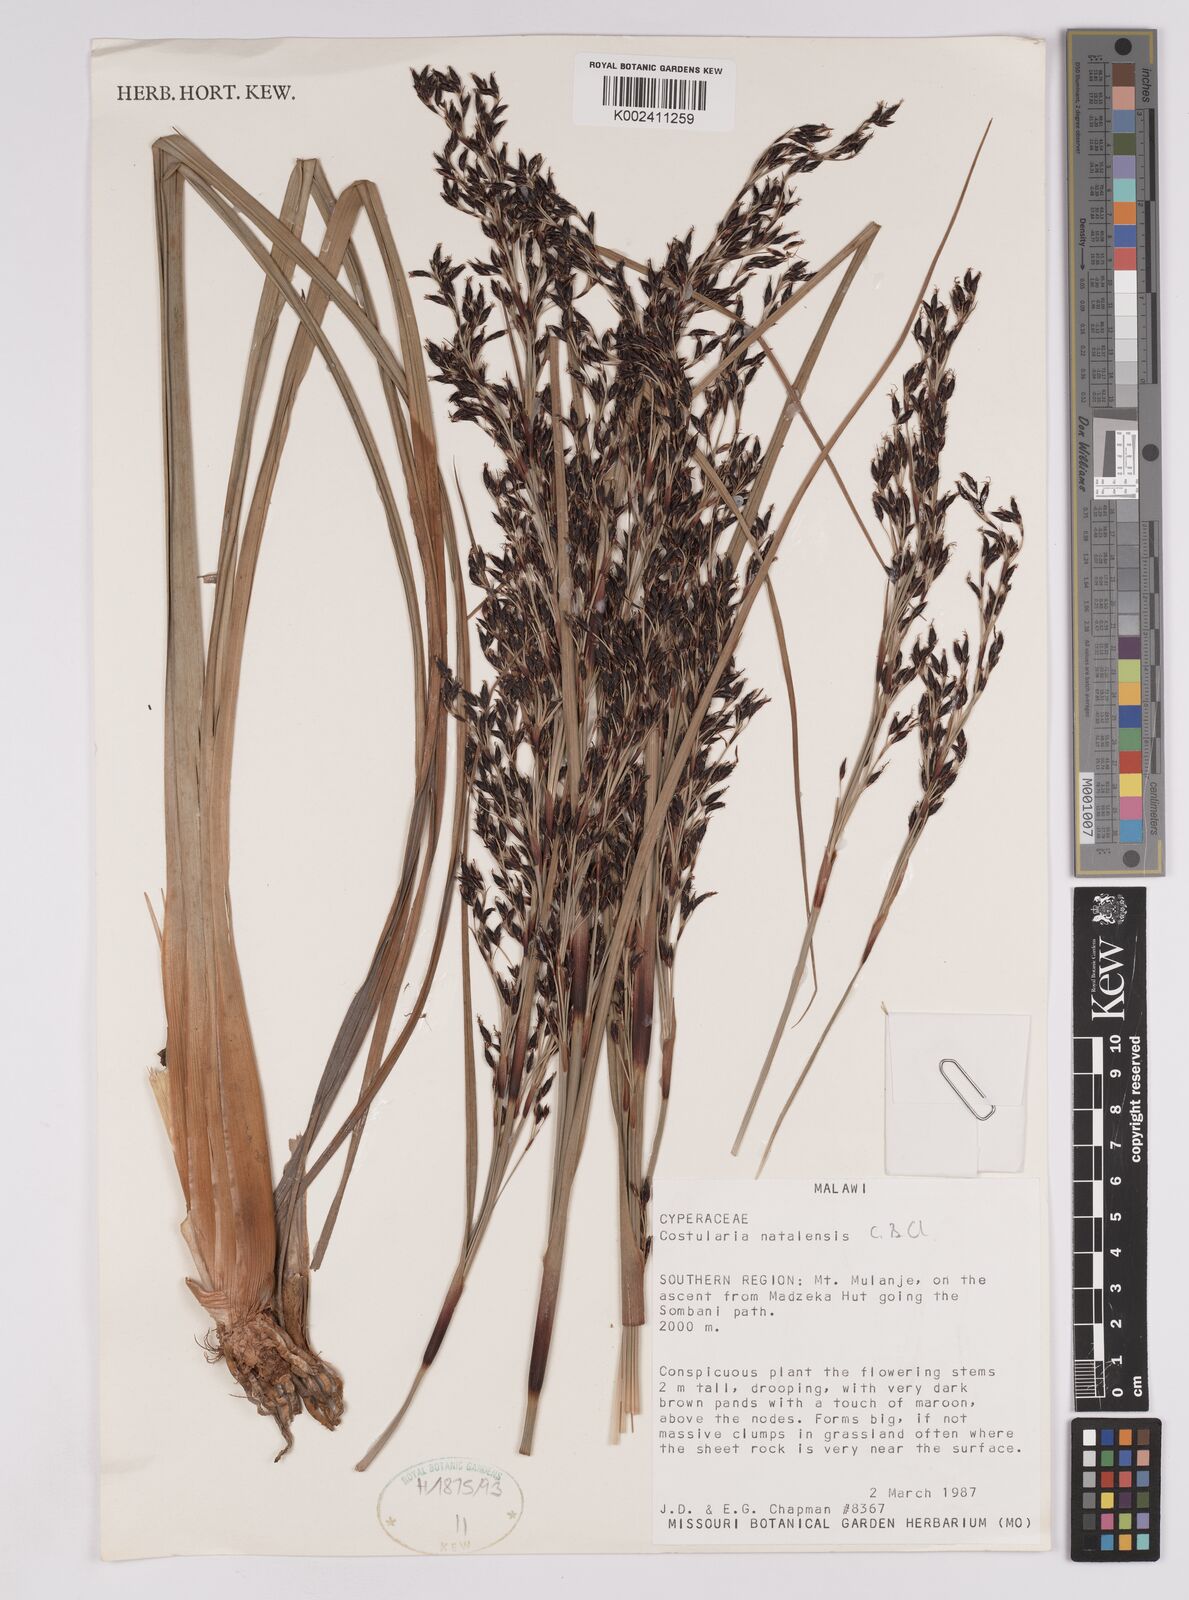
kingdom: Plantae
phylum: Tracheophyta
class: Liliopsida
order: Poales
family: Cyperaceae
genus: Costularia
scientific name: Costularia natalensis
